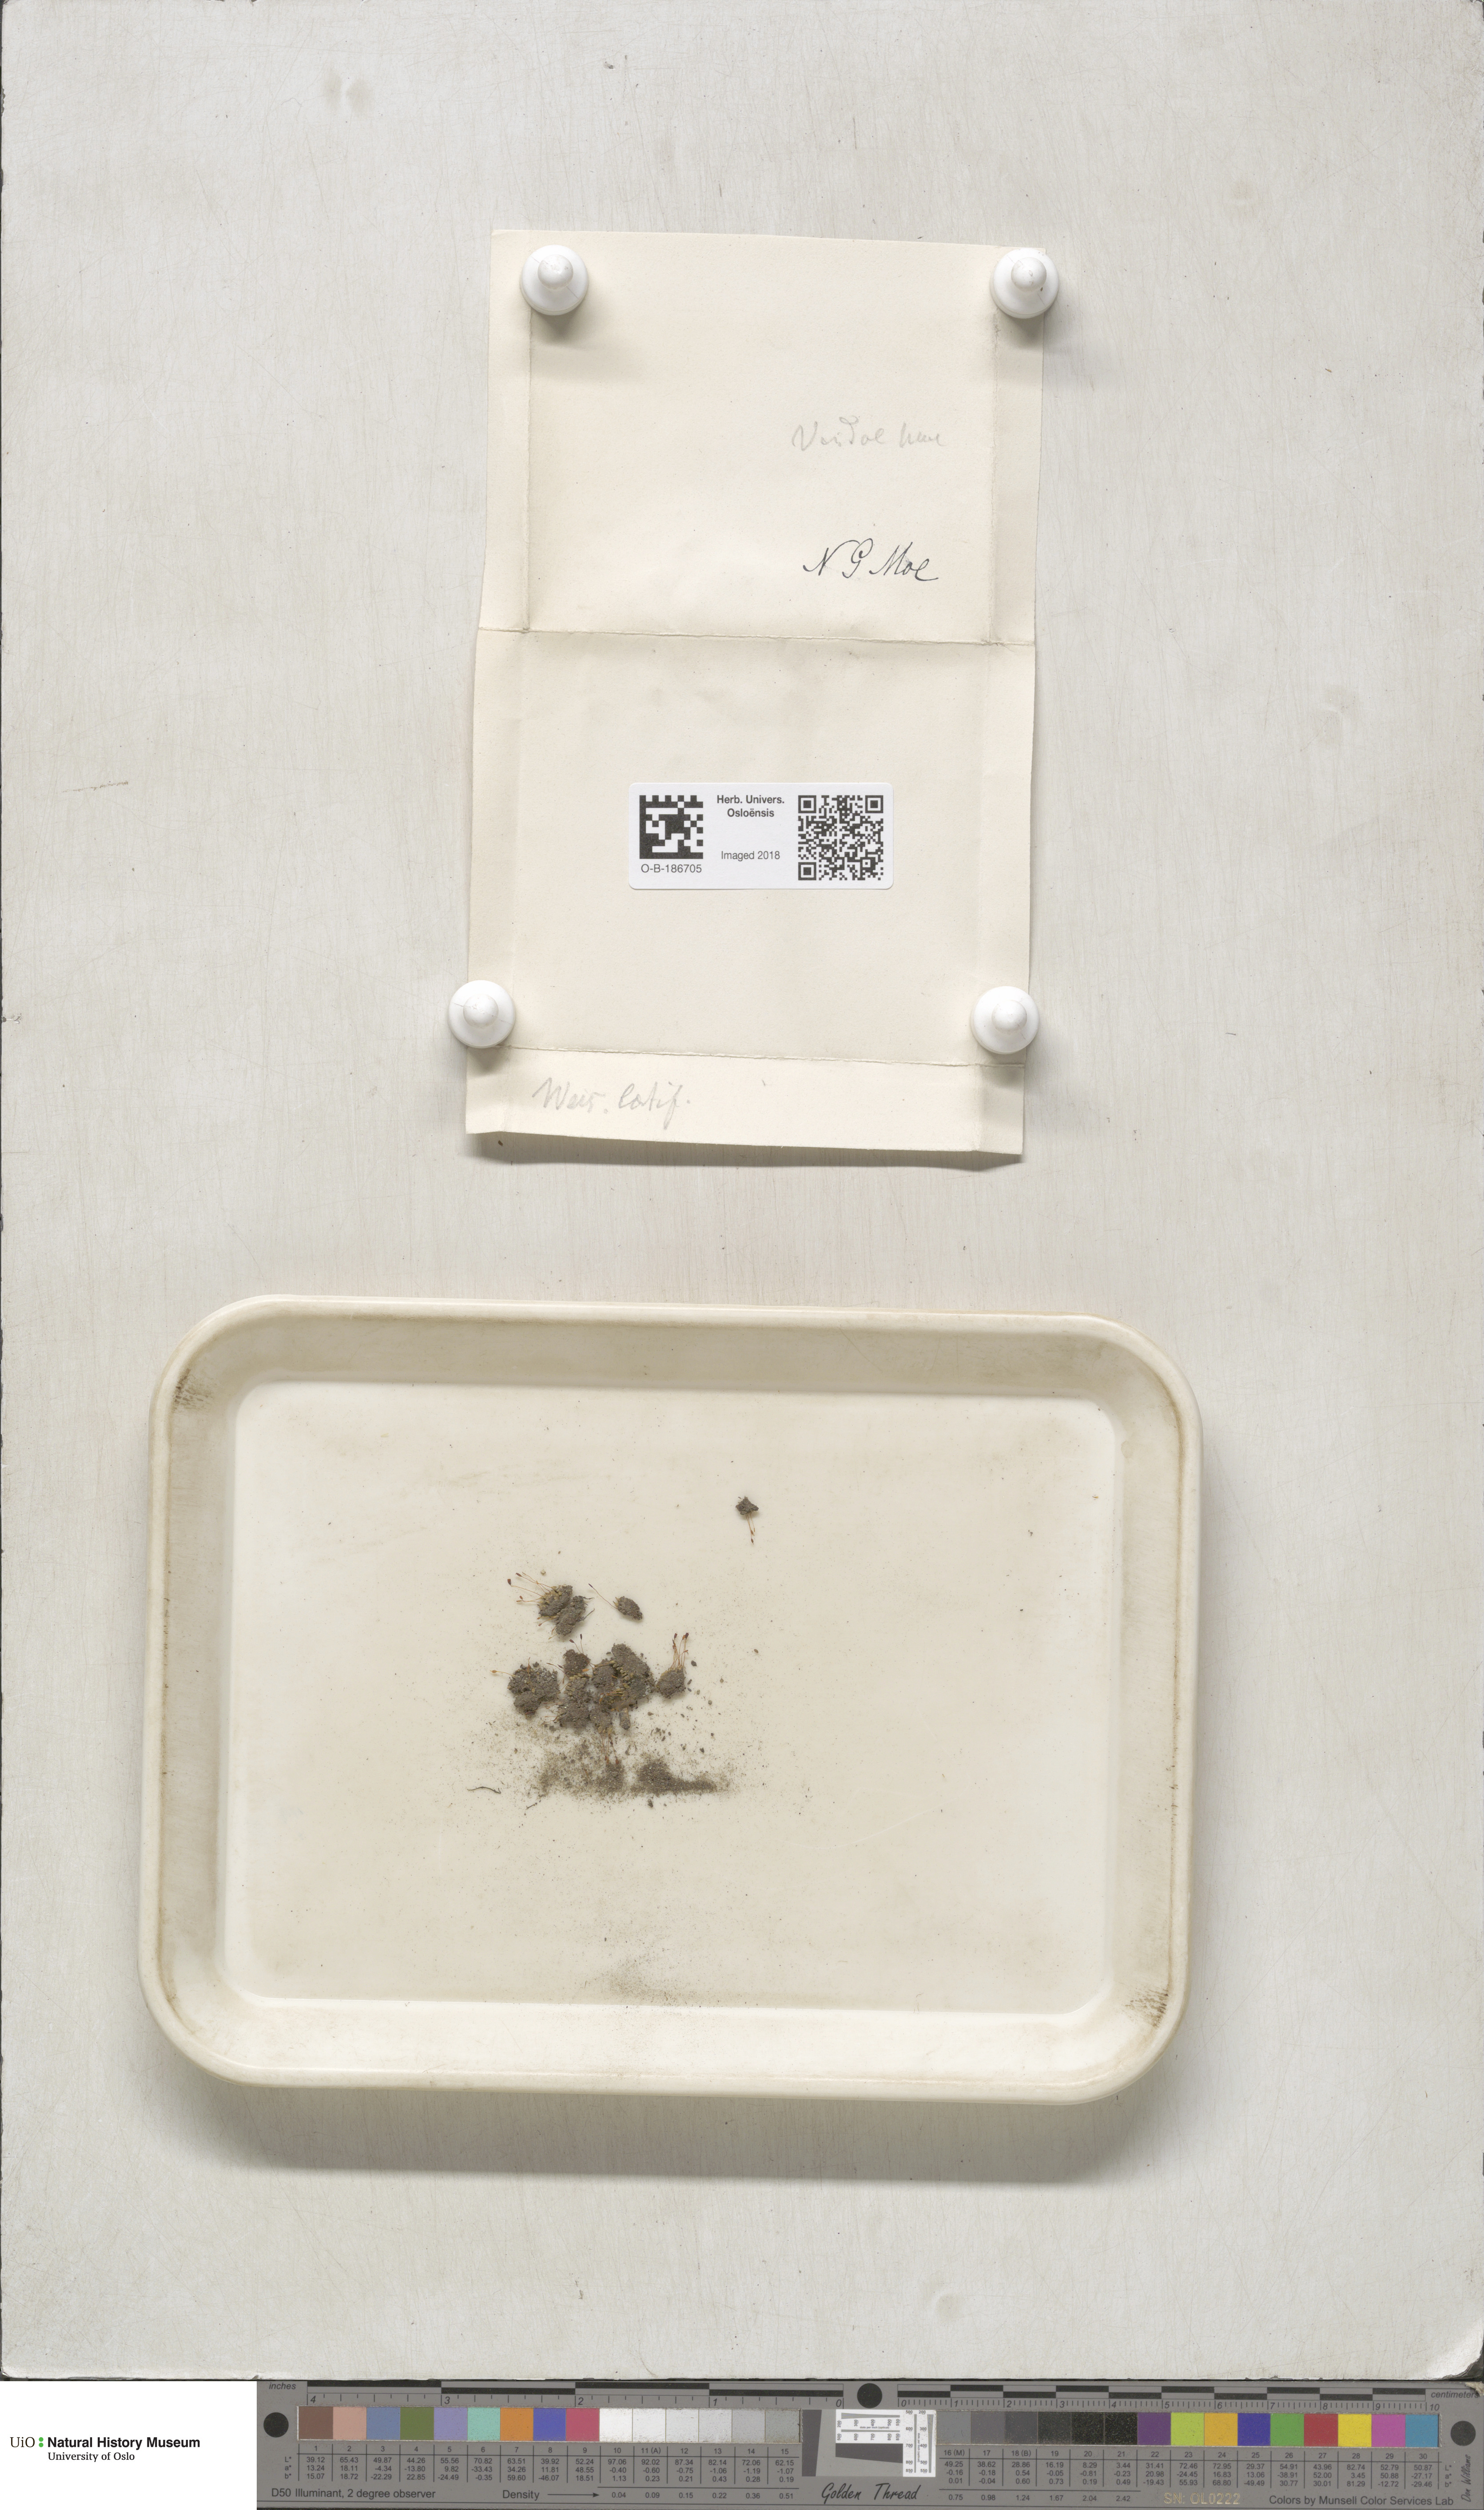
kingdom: Plantae
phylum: Bryophyta
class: Bryopsida
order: Pottiales
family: Pottiaceae
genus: Stegonia
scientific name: Stegonia latifolia
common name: Hood-leaved screw-moss
